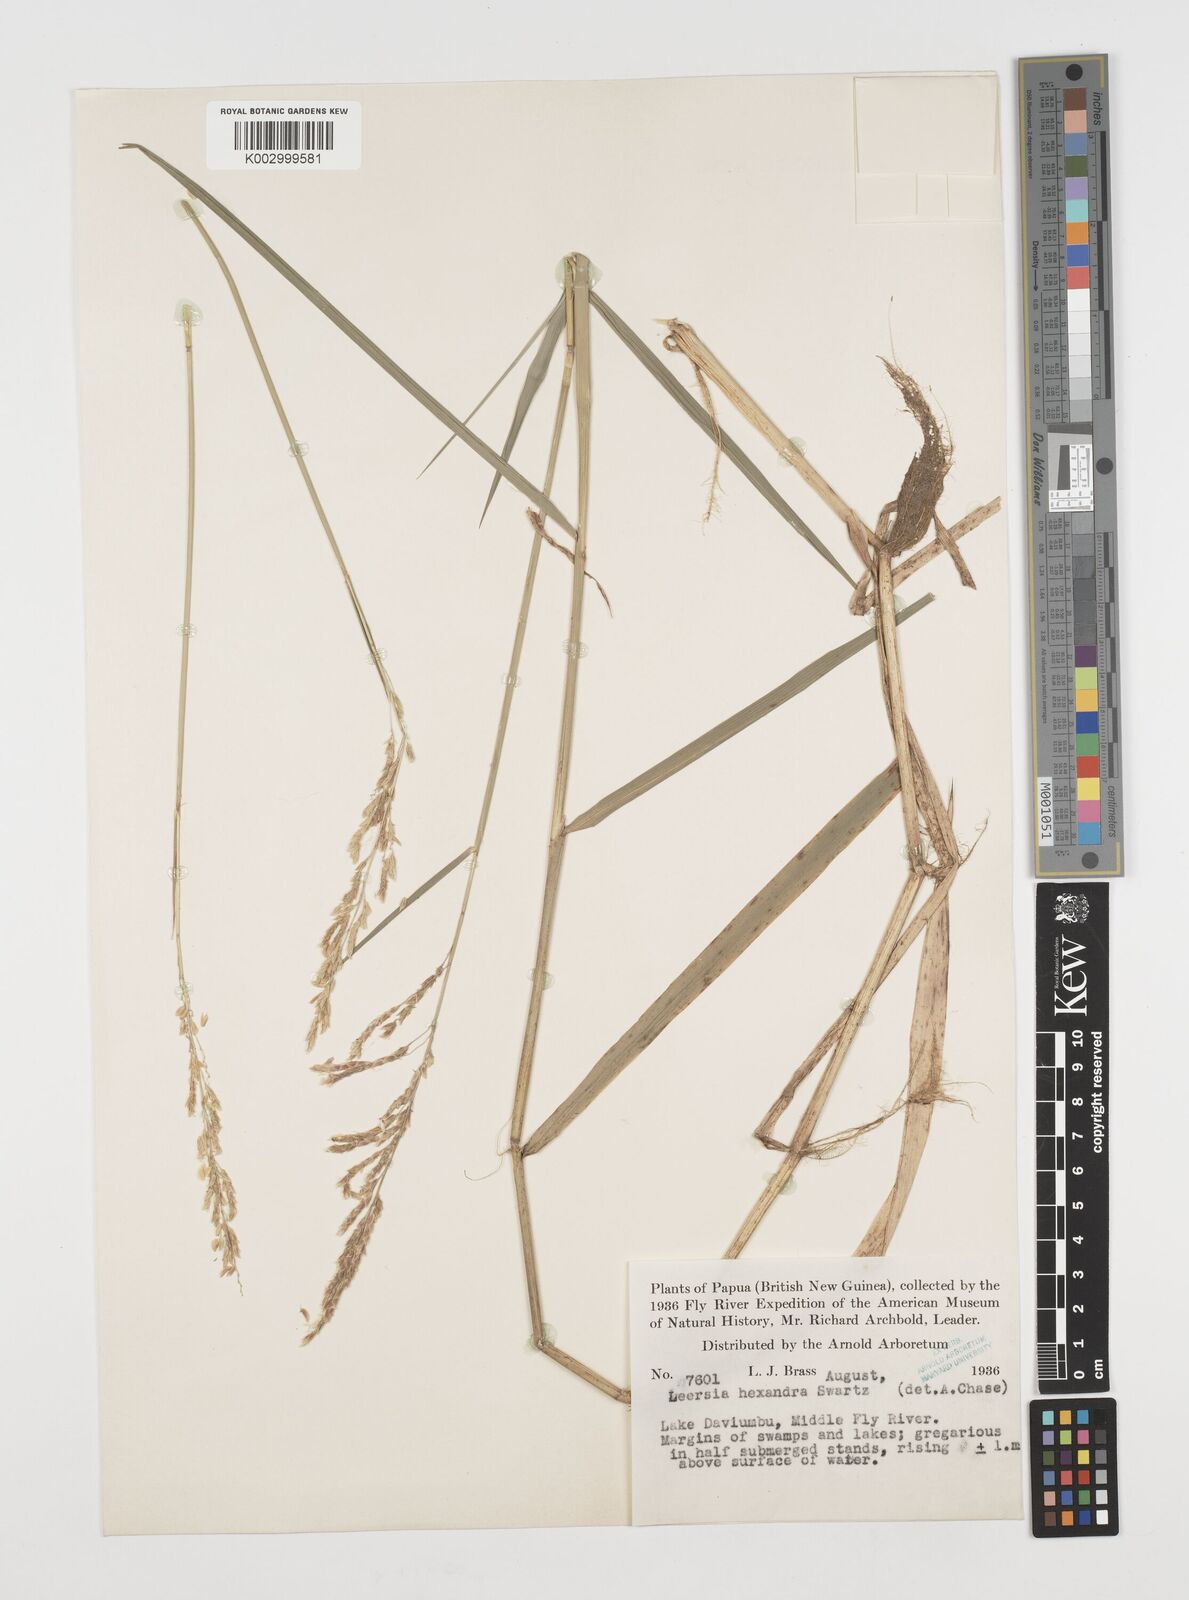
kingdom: Plantae
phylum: Tracheophyta
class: Liliopsida
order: Poales
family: Poaceae
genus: Leersia
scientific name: Leersia hexandra
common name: Southern cut grass
